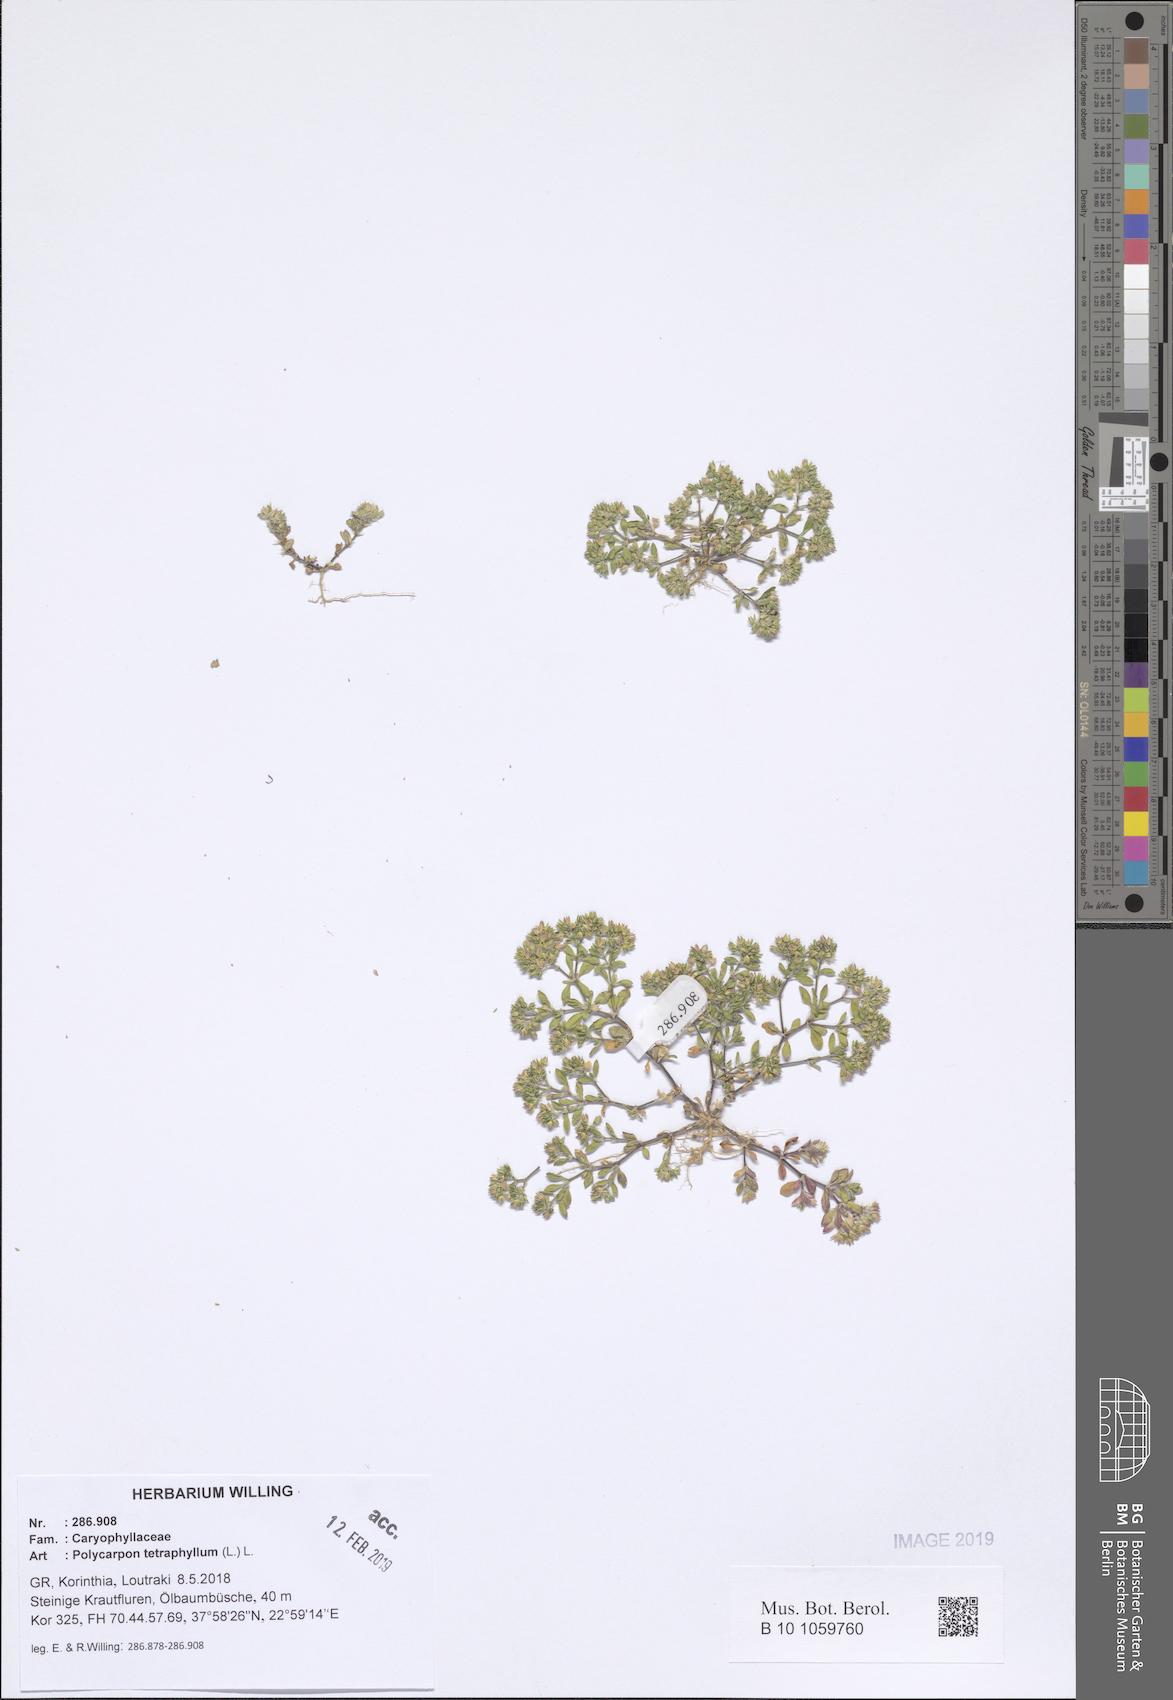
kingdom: Plantae
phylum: Tracheophyta
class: Magnoliopsida
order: Caryophyllales
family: Caryophyllaceae
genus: Polycarpon
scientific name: Polycarpon tetraphyllum
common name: Four-leaved all-seed
